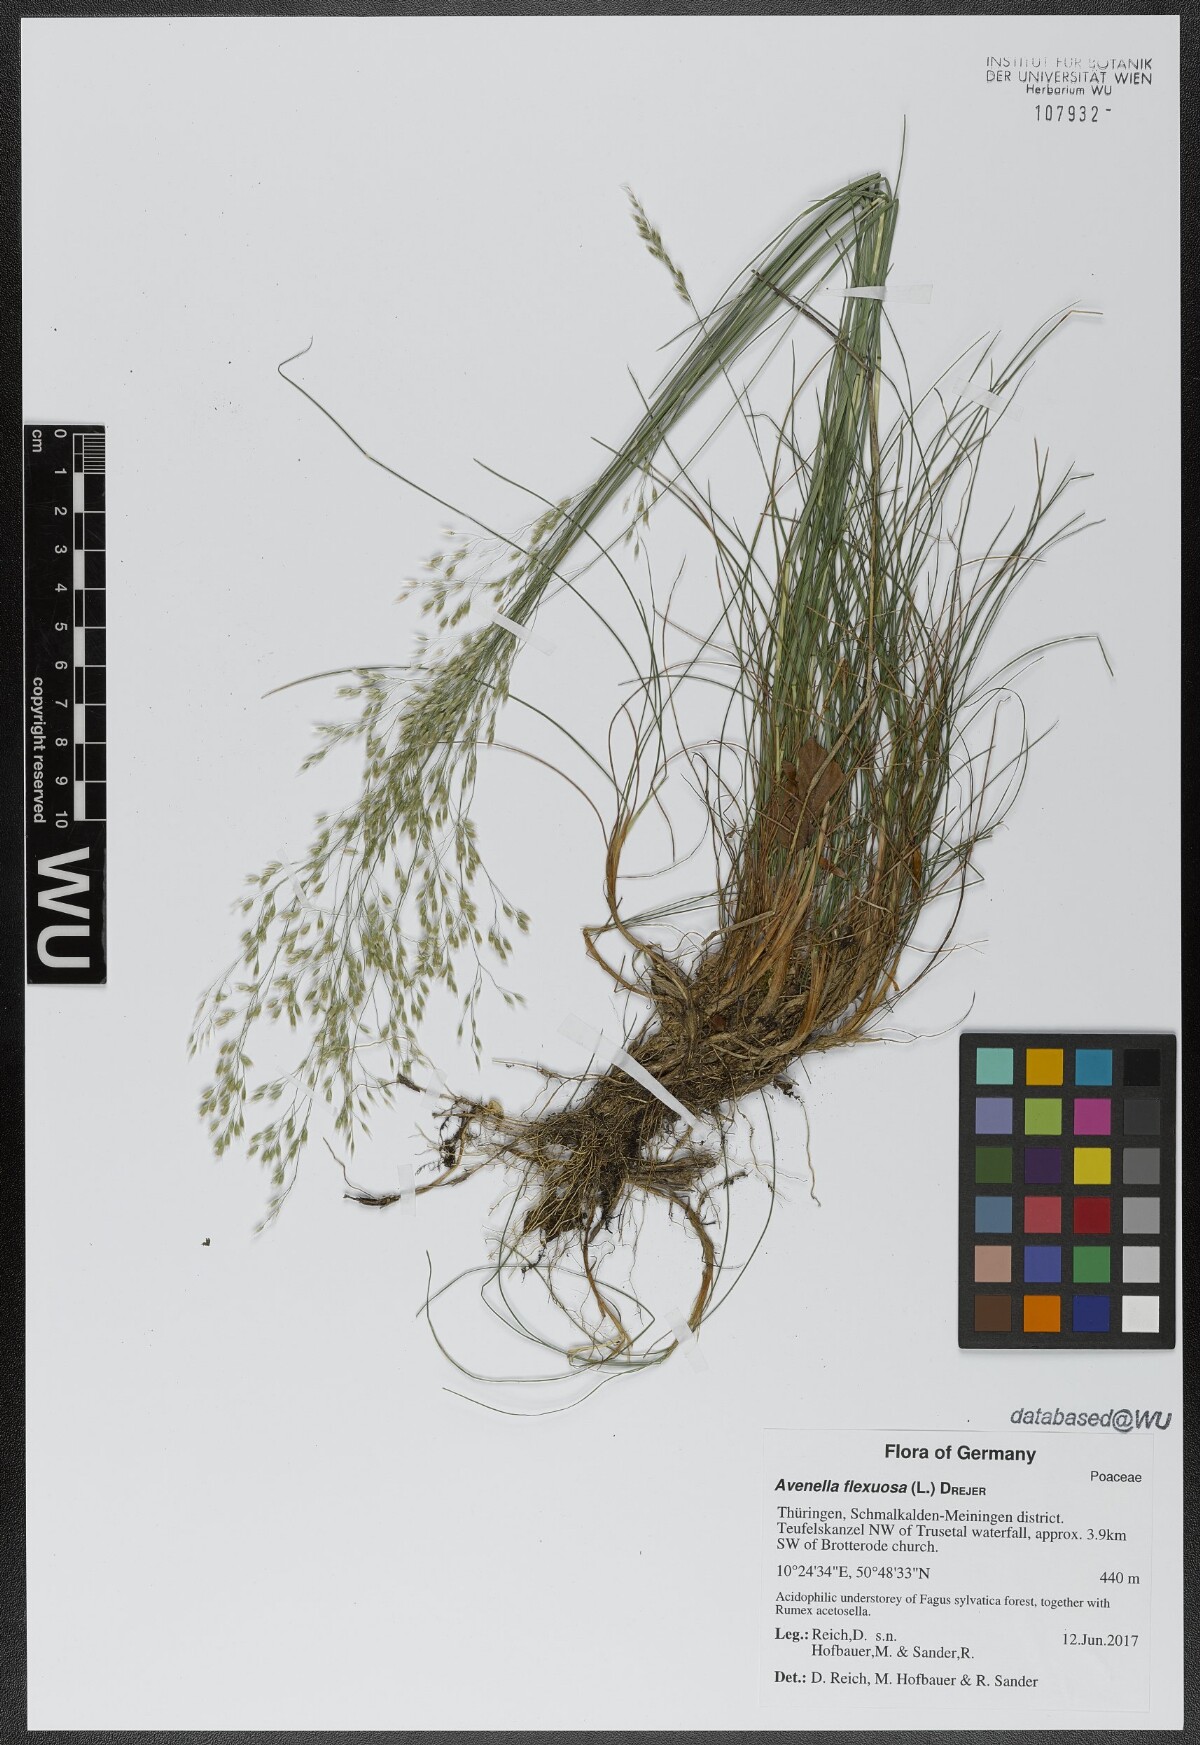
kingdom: Plantae
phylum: Tracheophyta
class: Liliopsida
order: Poales
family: Poaceae
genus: Avenella
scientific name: Avenella flexuosa
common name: Wavy hairgrass
